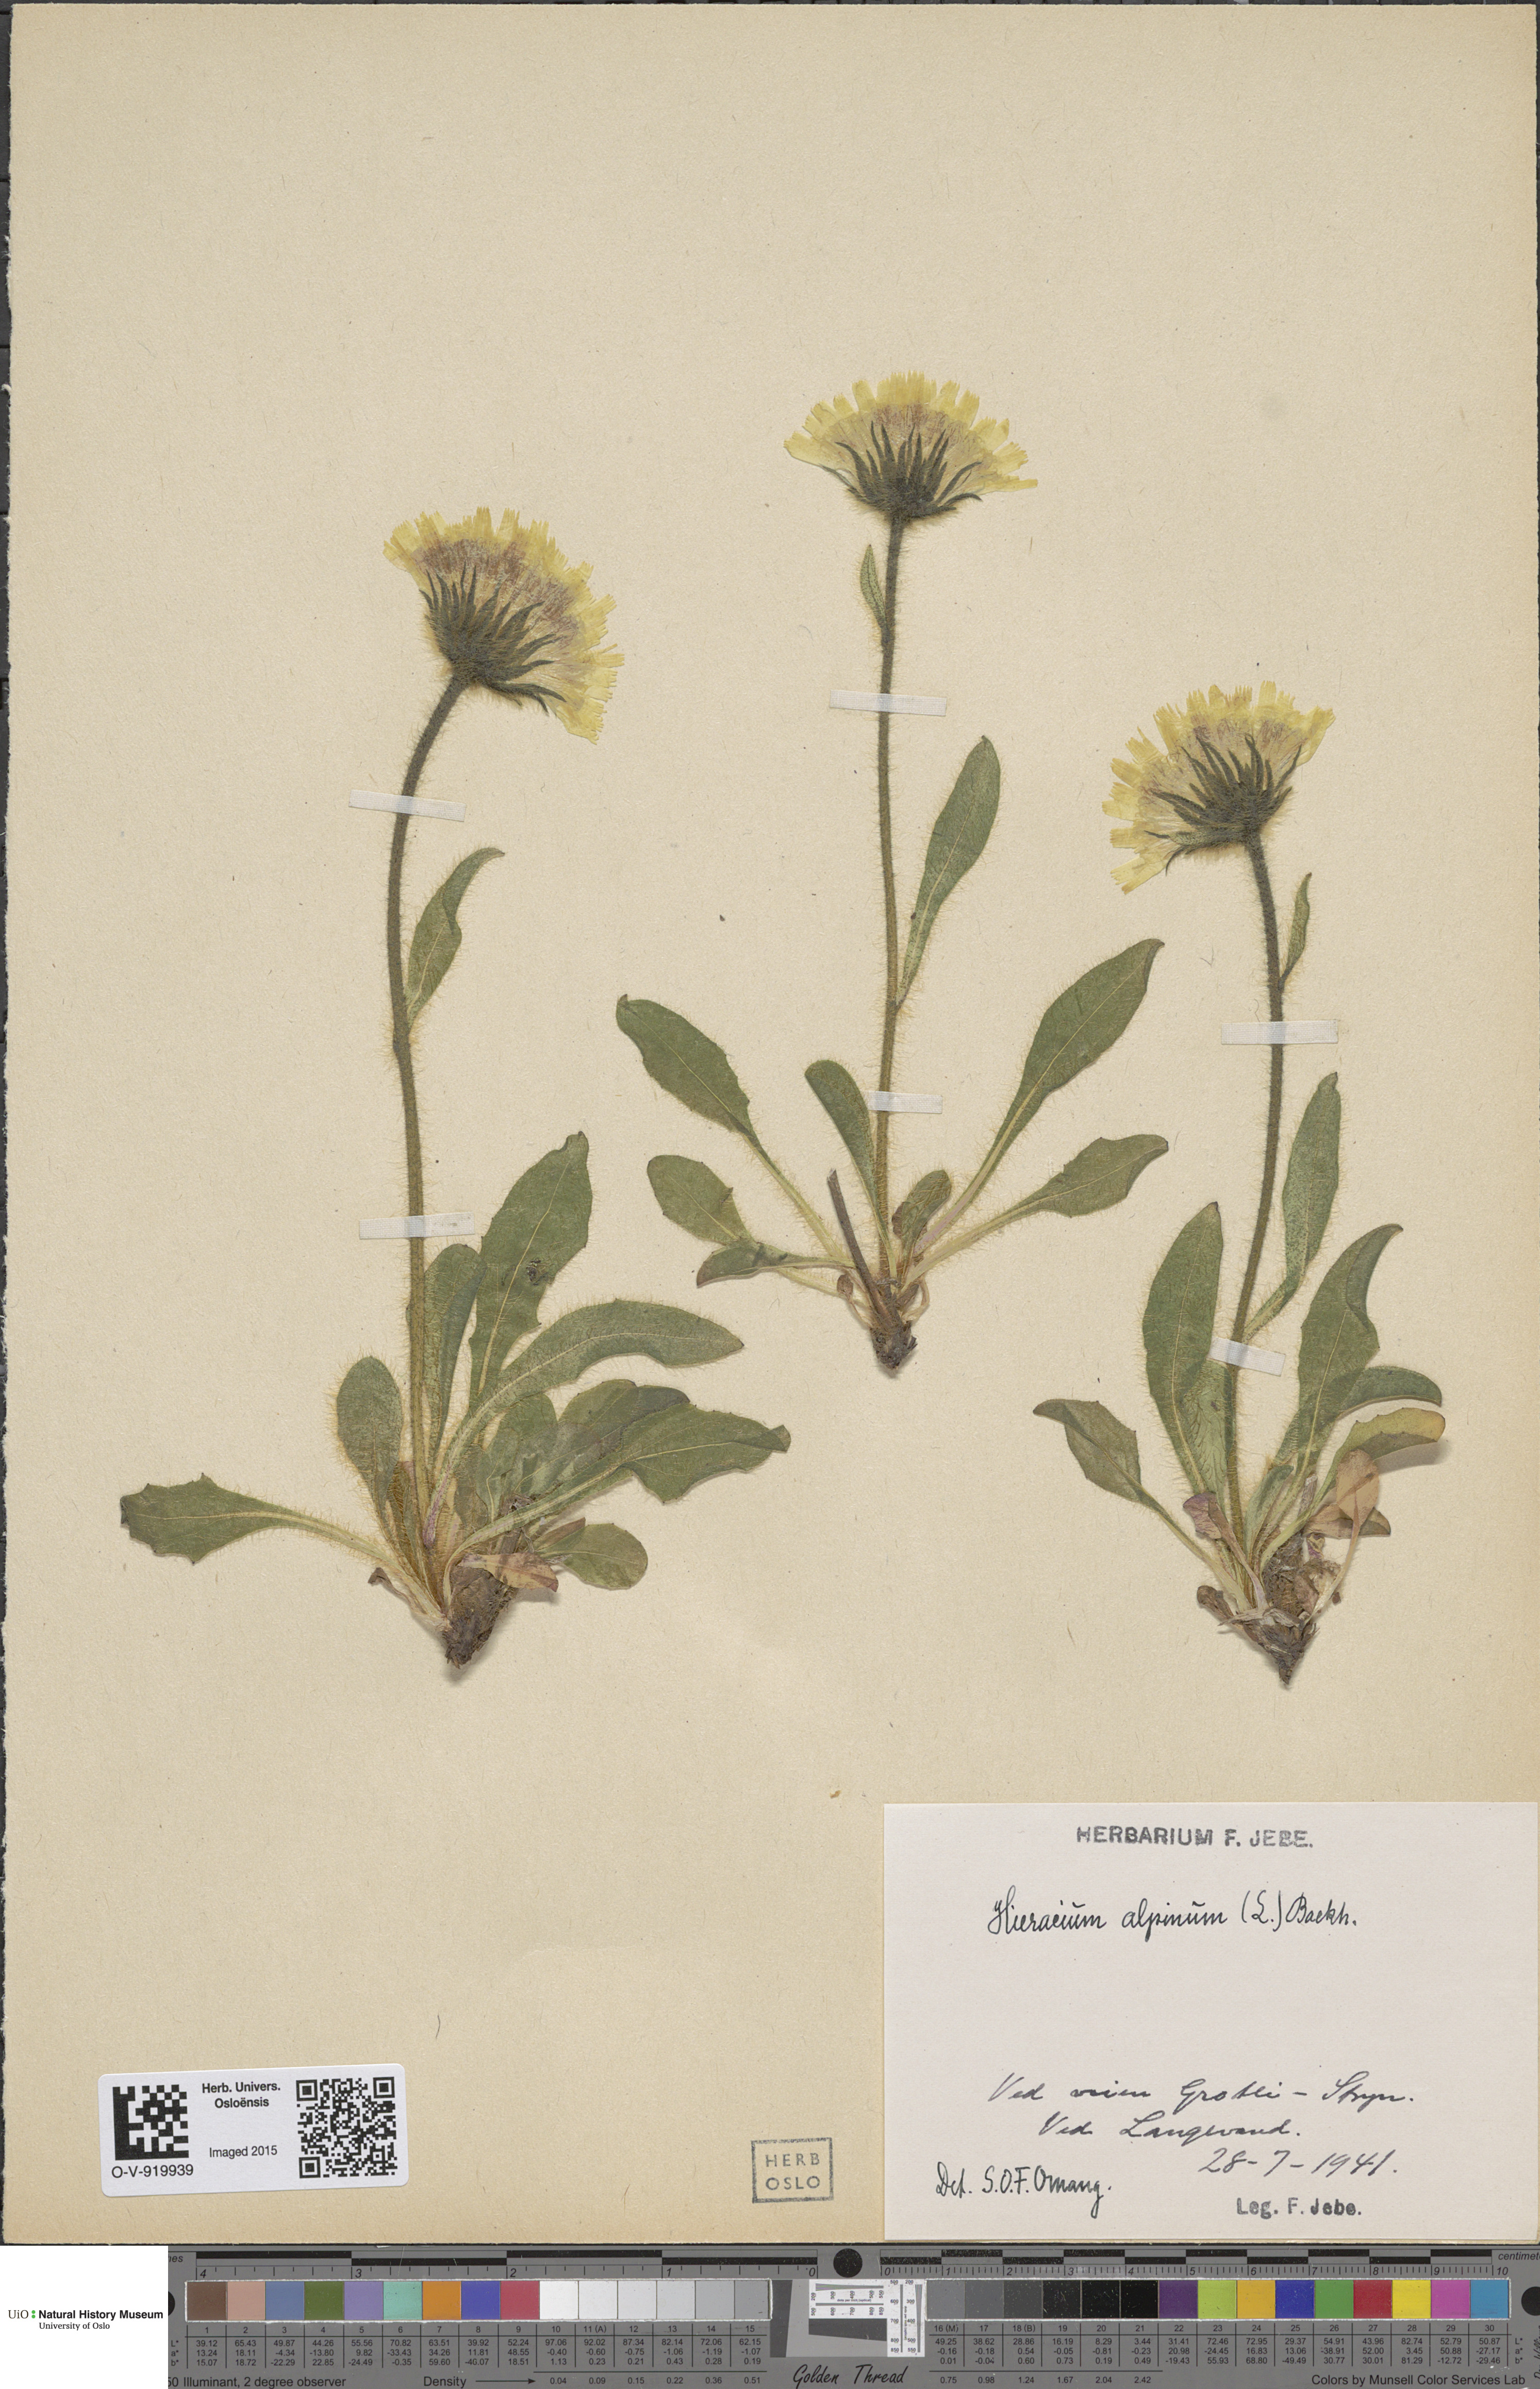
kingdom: Plantae
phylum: Tracheophyta
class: Magnoliopsida
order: Asterales
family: Asteraceae
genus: Hieracium
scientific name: Hieracium alpinum
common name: Alpine hawkweed
